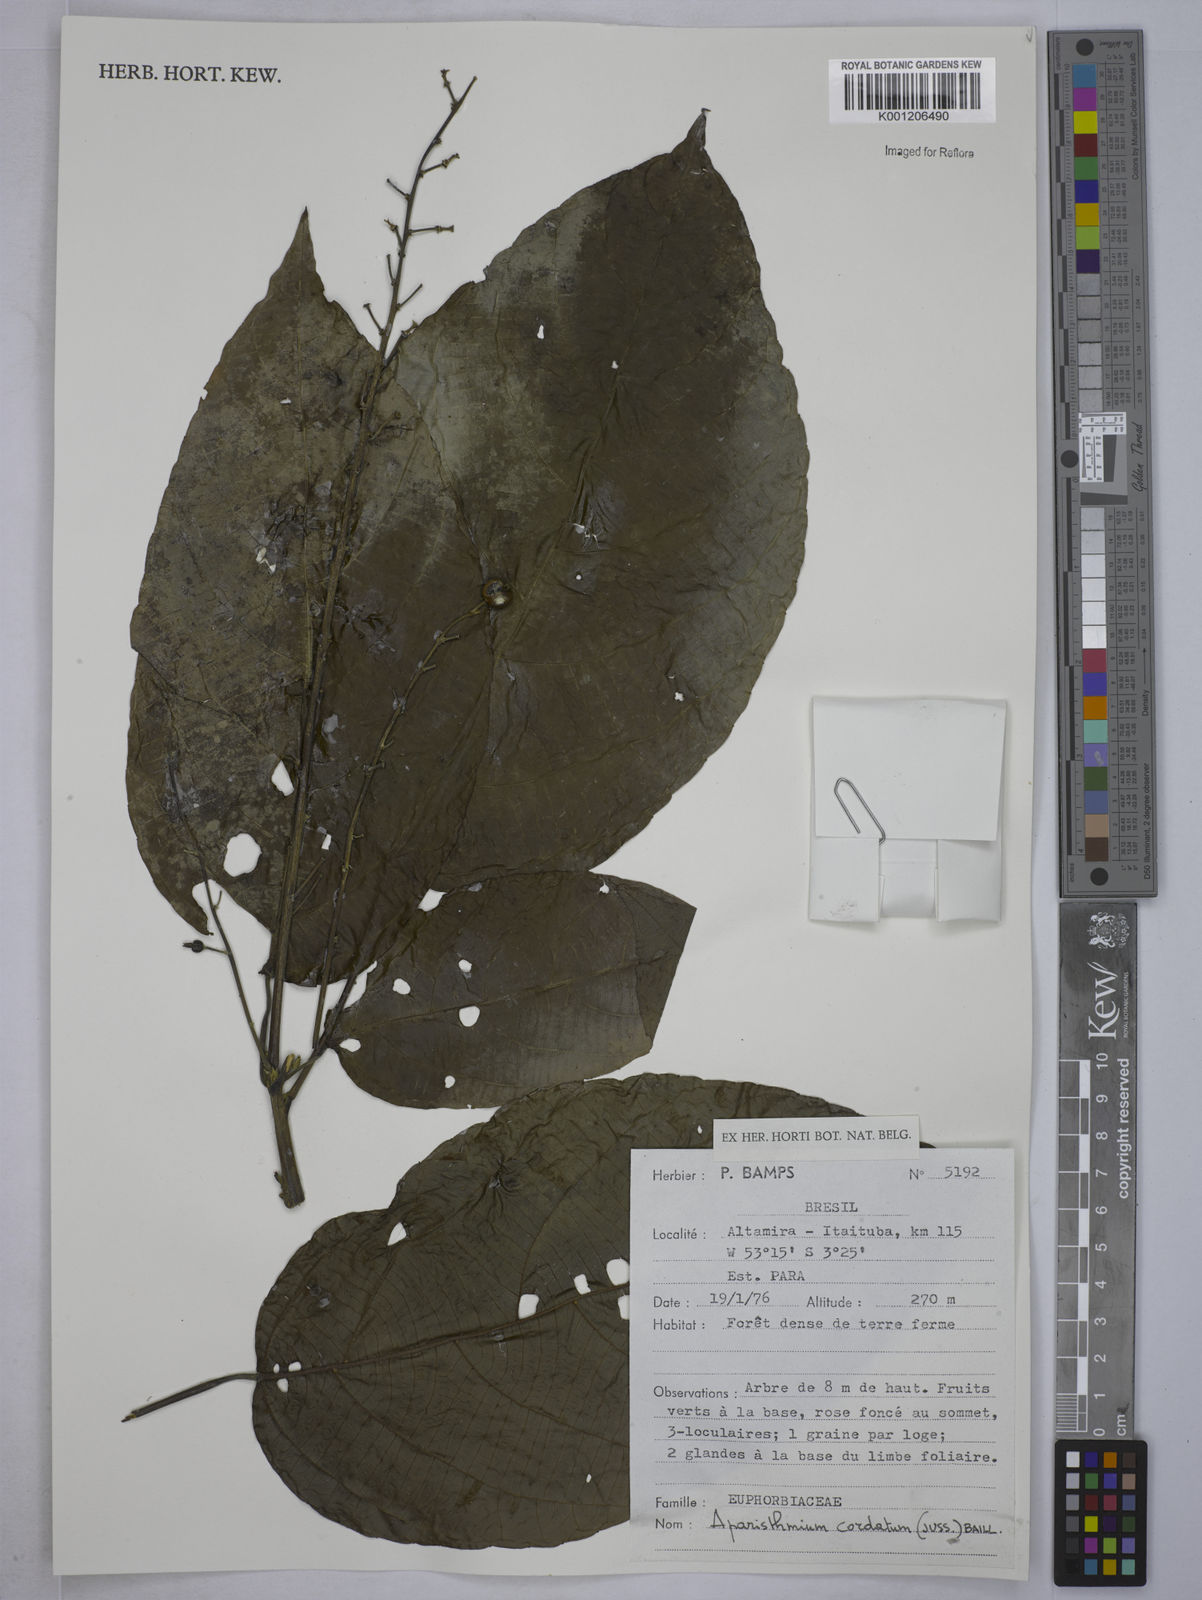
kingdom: Plantae
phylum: Tracheophyta
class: Magnoliopsida
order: Malpighiales
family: Euphorbiaceae
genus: Aparisthmium
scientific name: Aparisthmium cordatum
